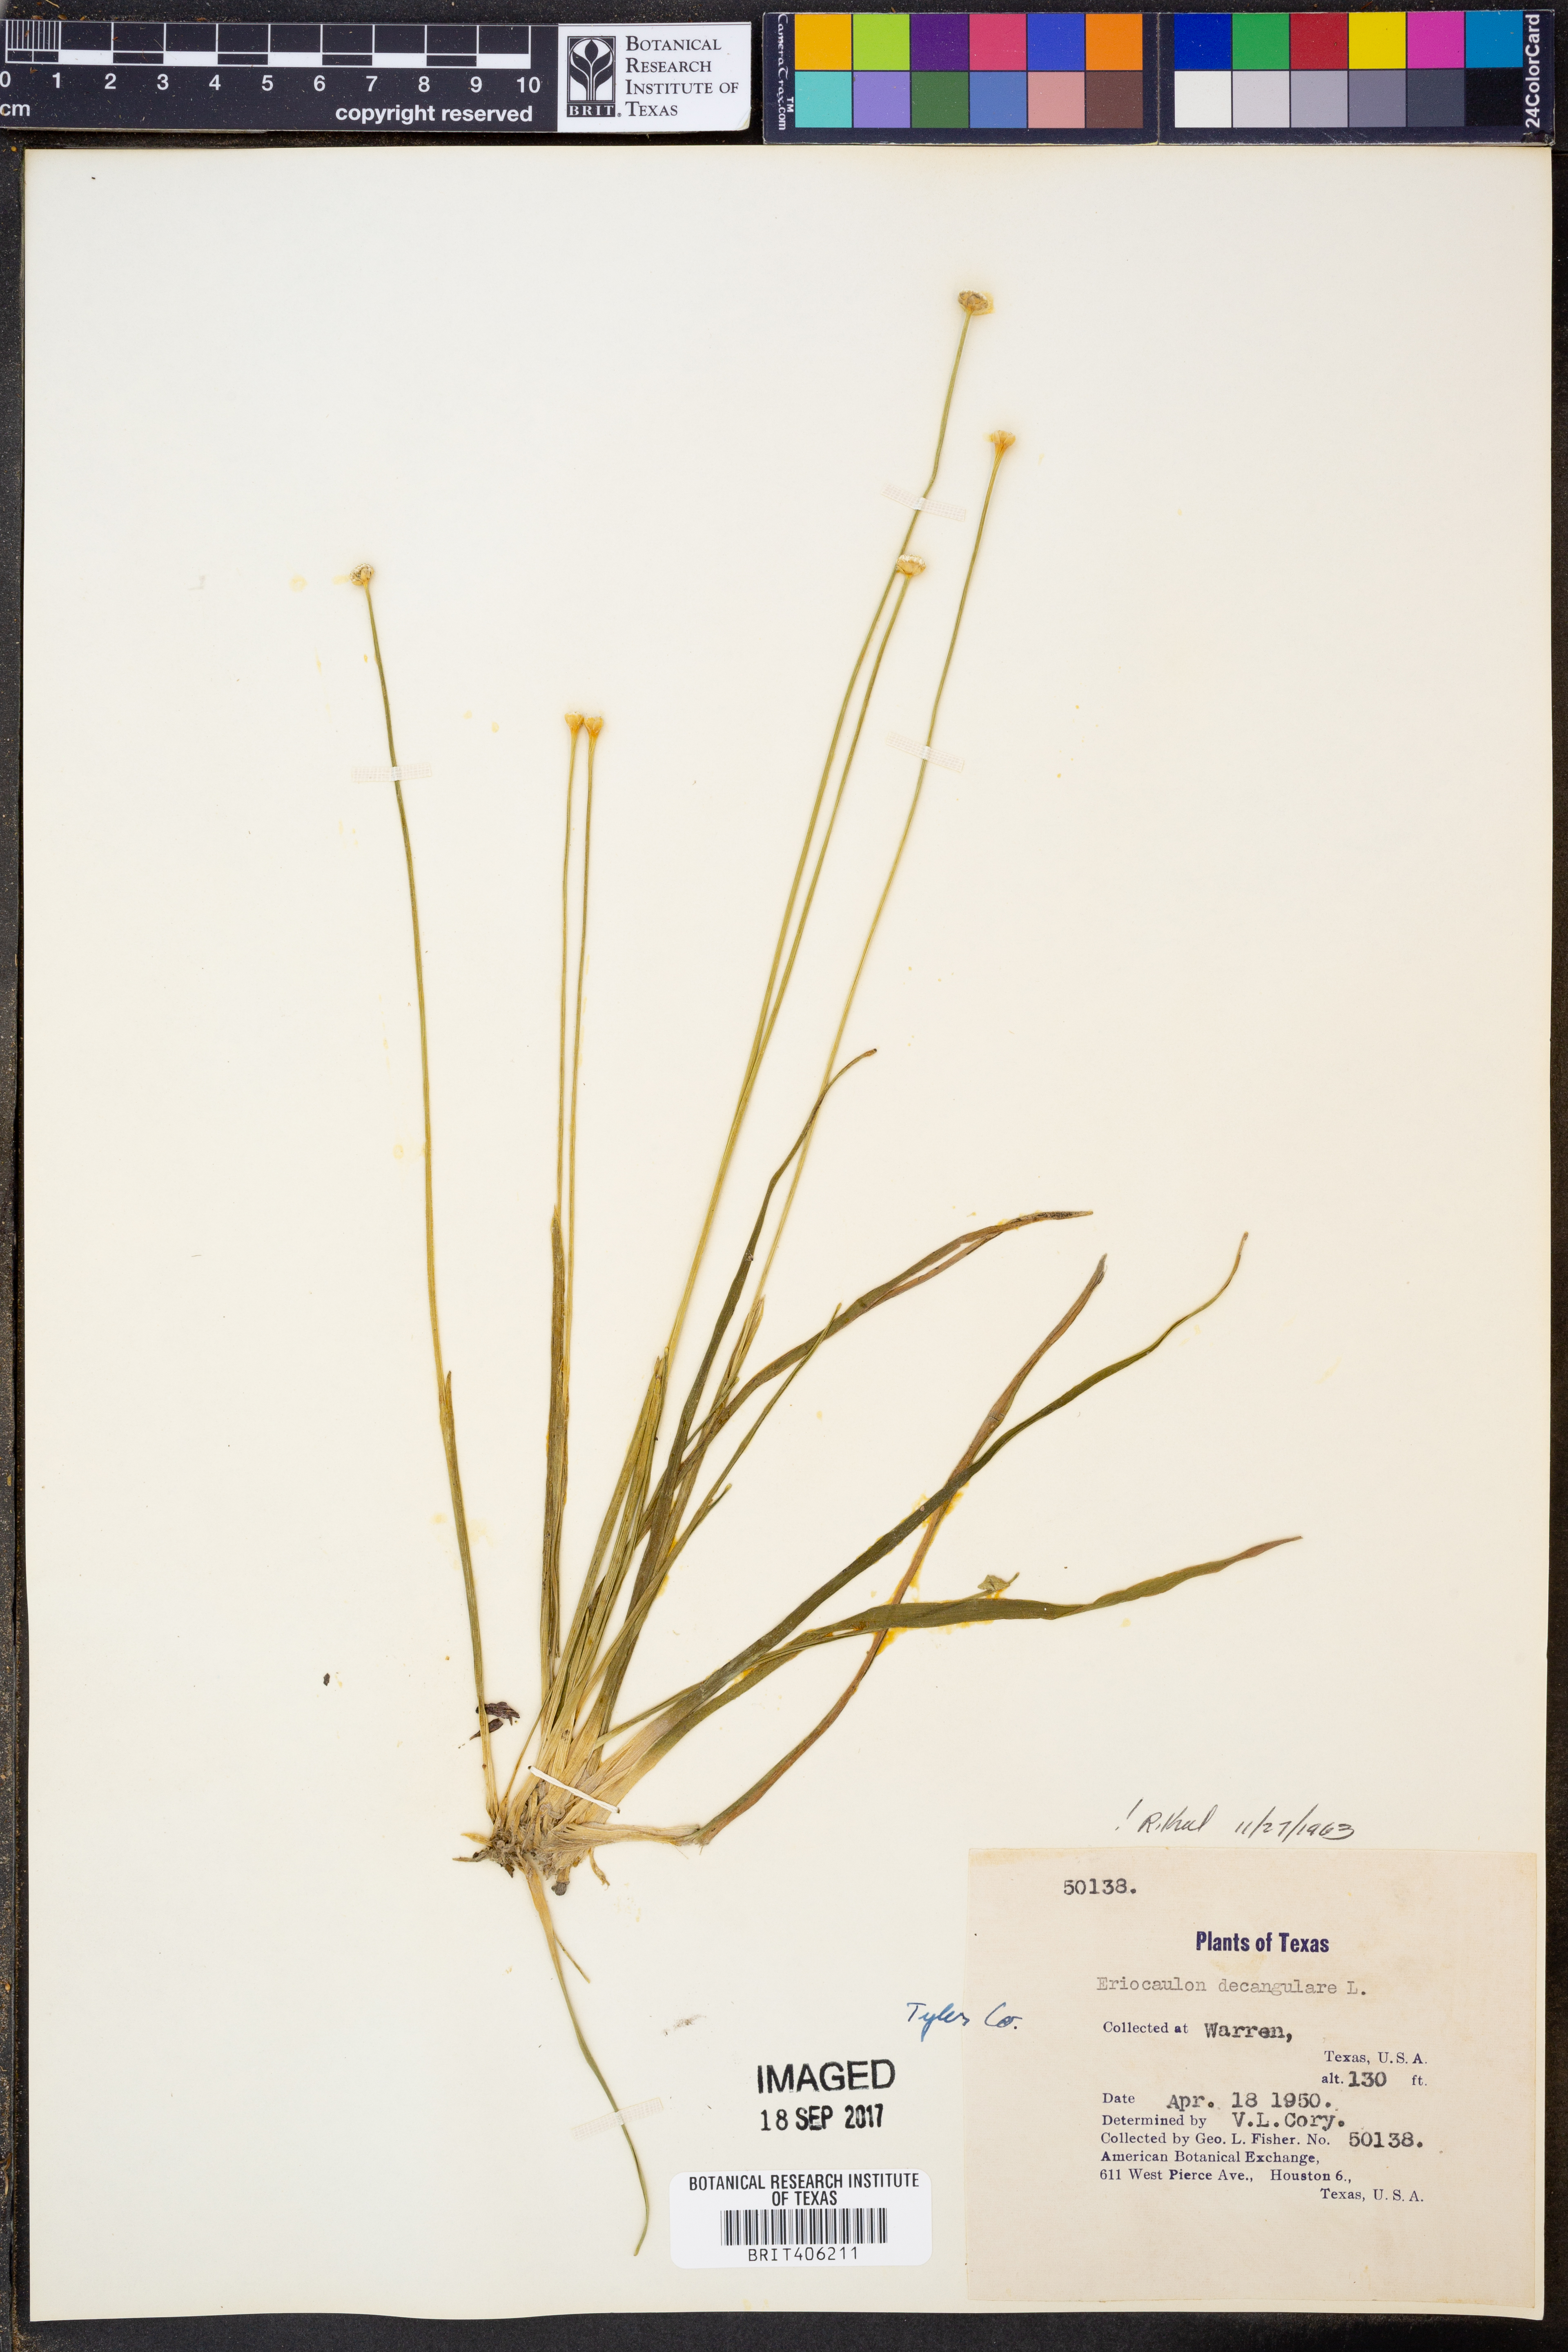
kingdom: Plantae
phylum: Tracheophyta
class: Liliopsida
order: Poales
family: Eriocaulaceae
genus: Eriocaulon
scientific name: Eriocaulon decangulare
